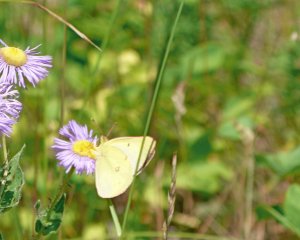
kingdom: Animalia
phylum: Arthropoda
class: Insecta
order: Lepidoptera
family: Pieridae
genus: Colias
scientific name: Colias philodice
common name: Clouded Sulphur
